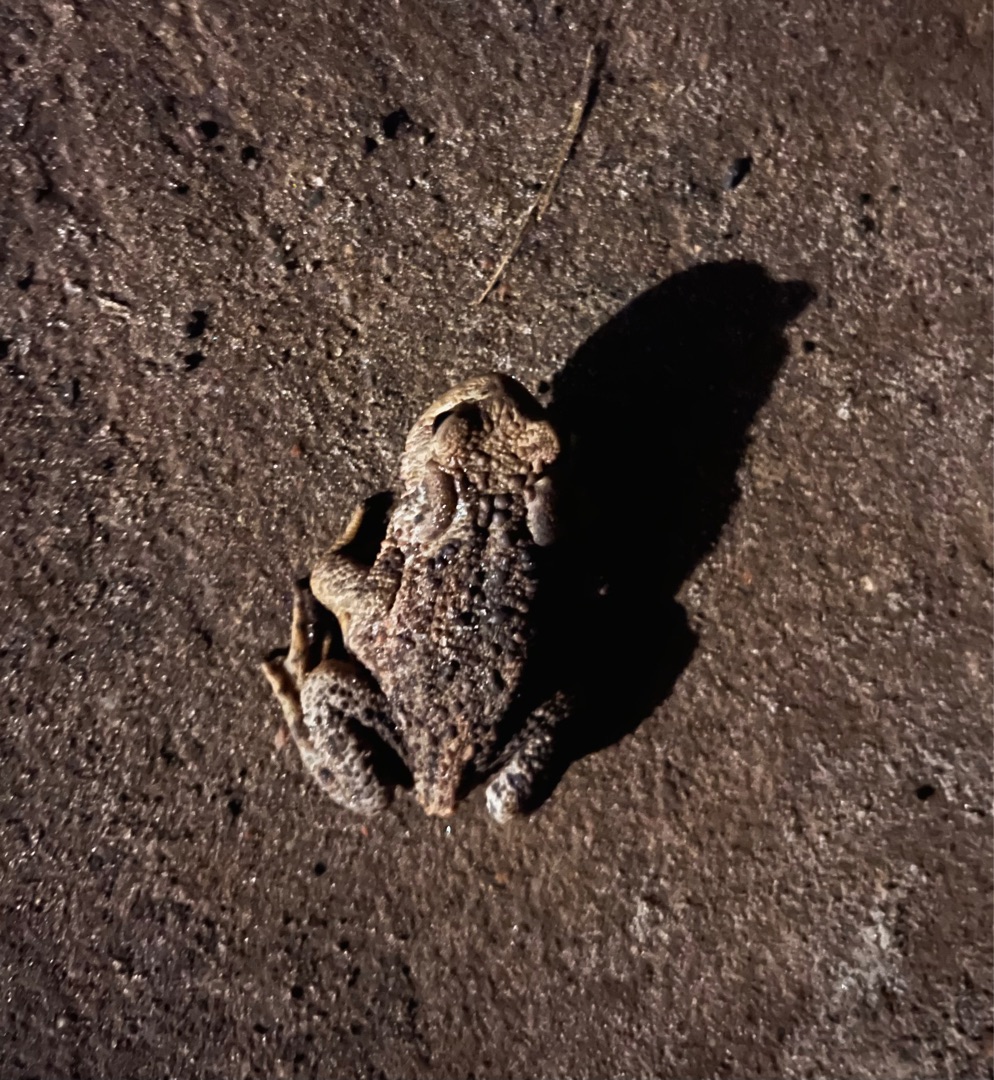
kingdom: Animalia
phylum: Chordata
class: Amphibia
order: Anura
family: Bufonidae
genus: Bufo
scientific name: Bufo bufo
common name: Skrubtudse
